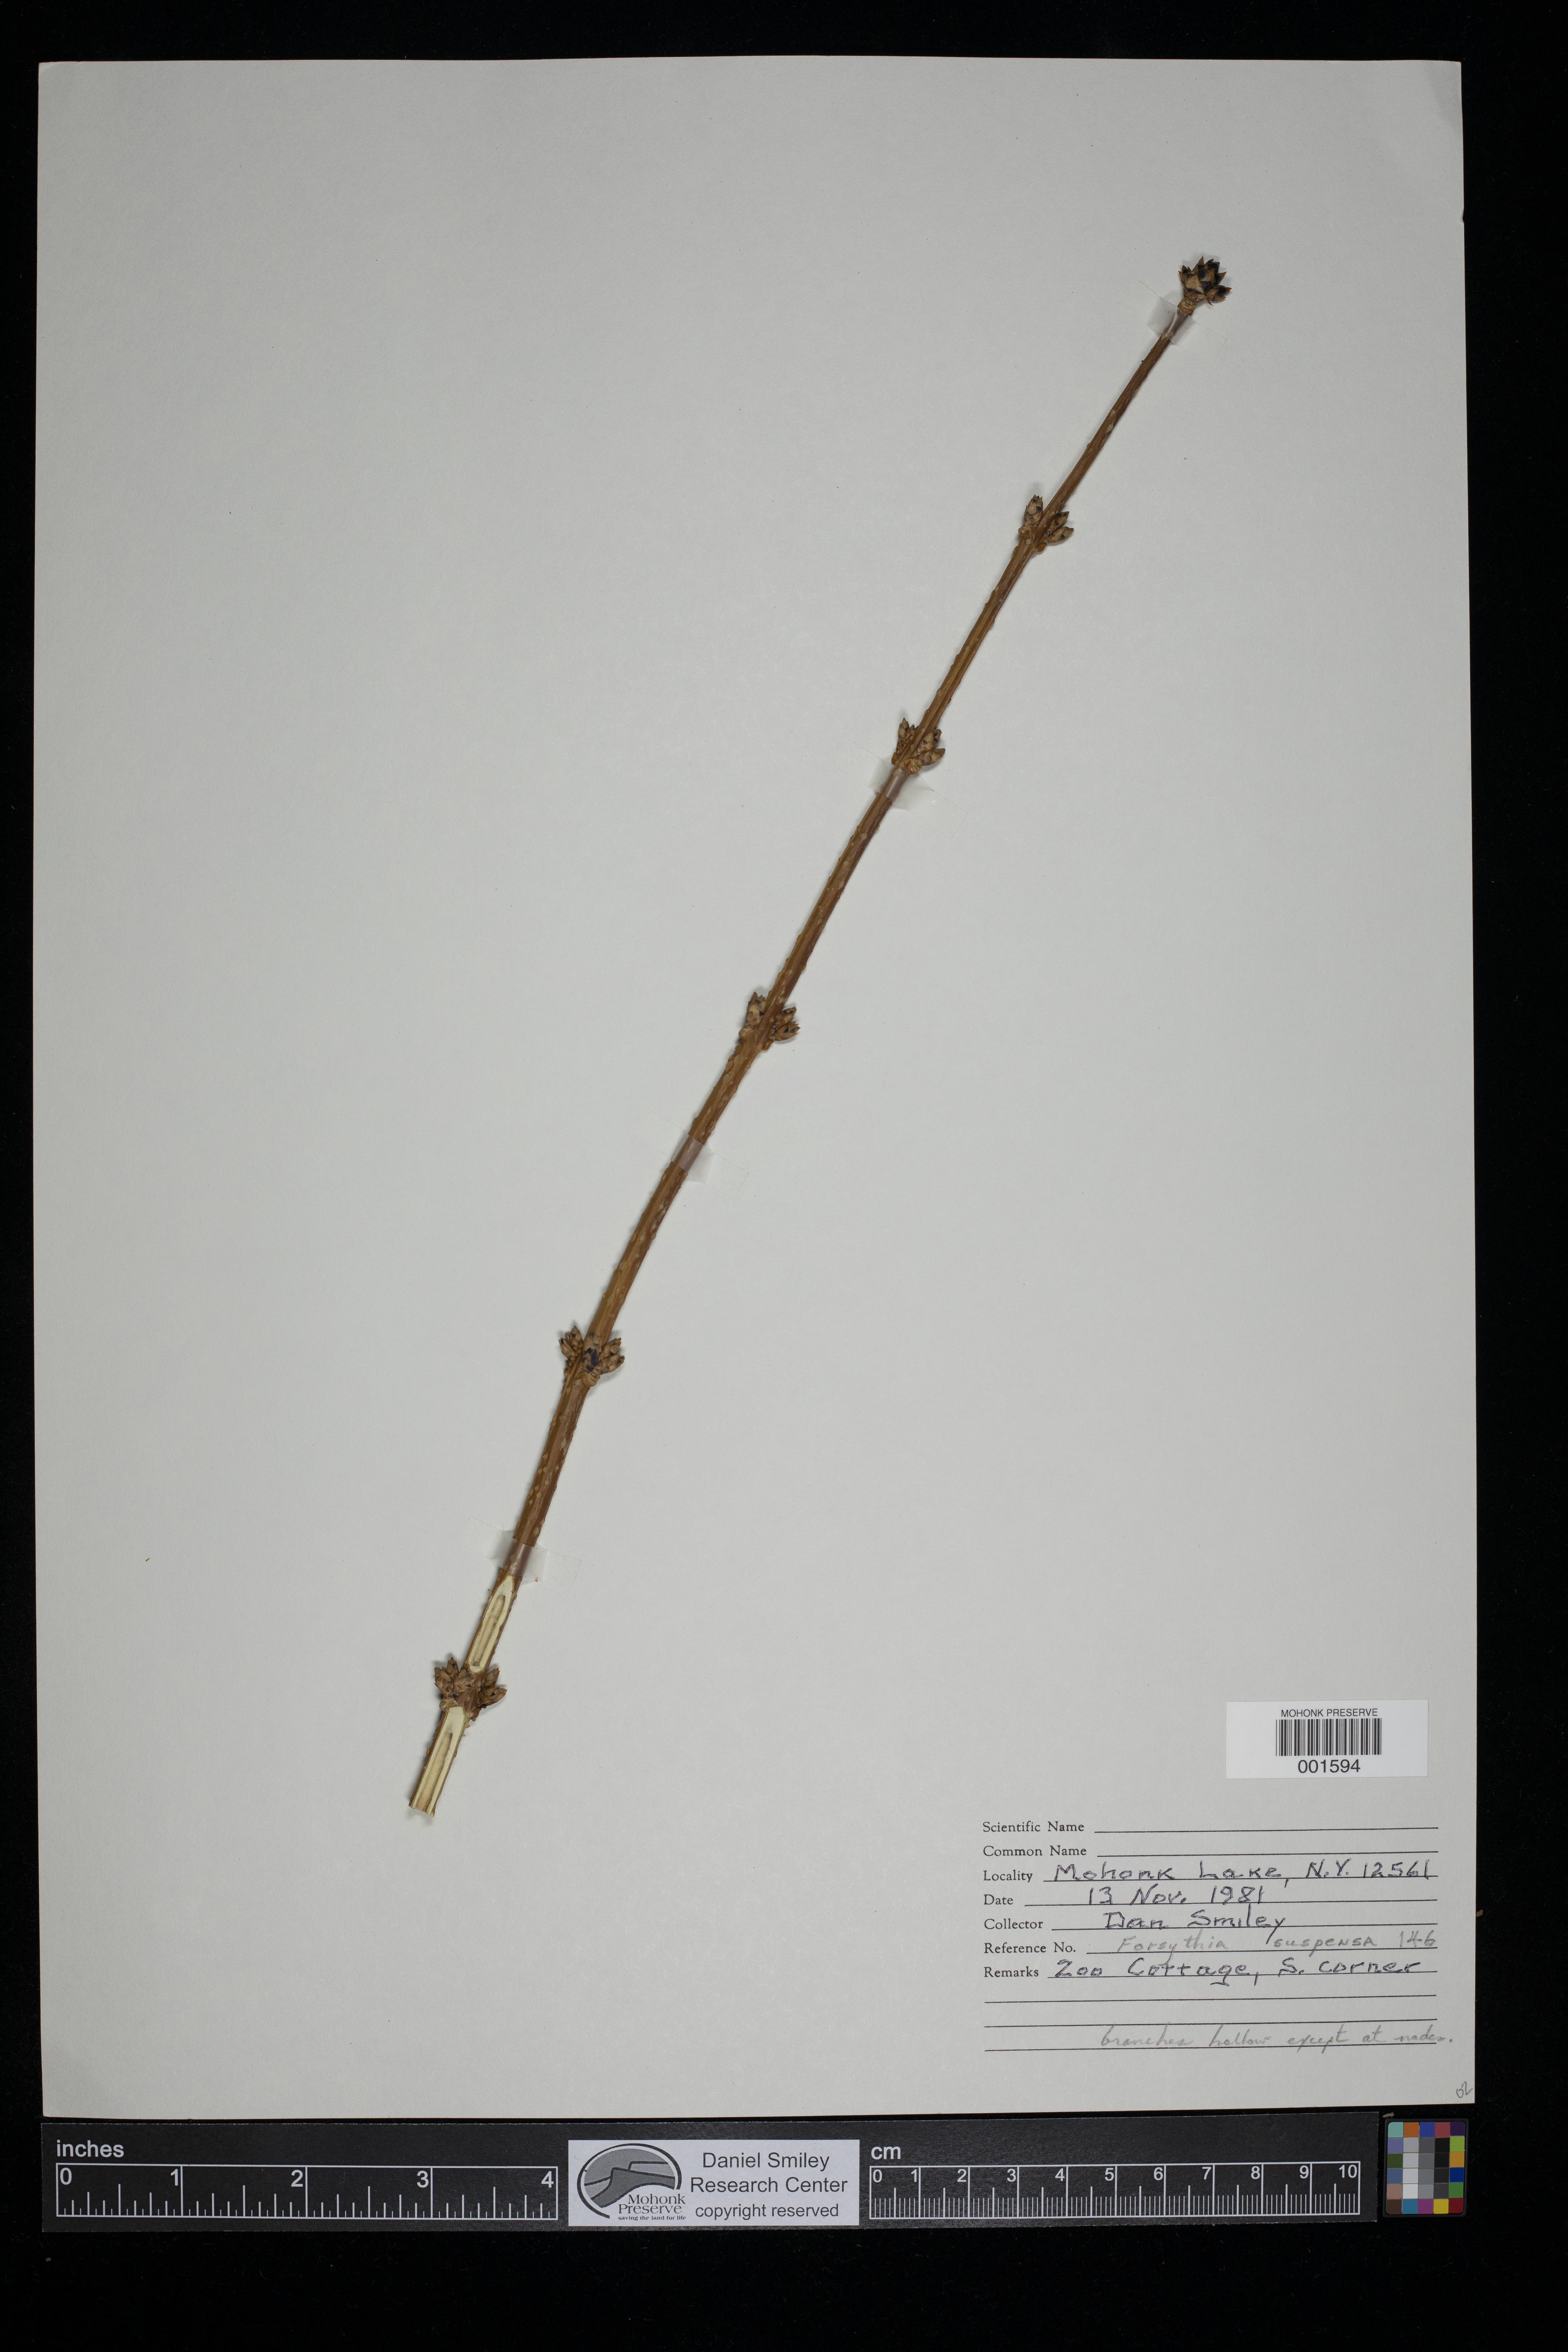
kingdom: Plantae
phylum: Tracheophyta
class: Magnoliopsida
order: Lamiales
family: Oleaceae
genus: Forsythia
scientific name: Forsythia suspensa
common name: Weeping forsythia
